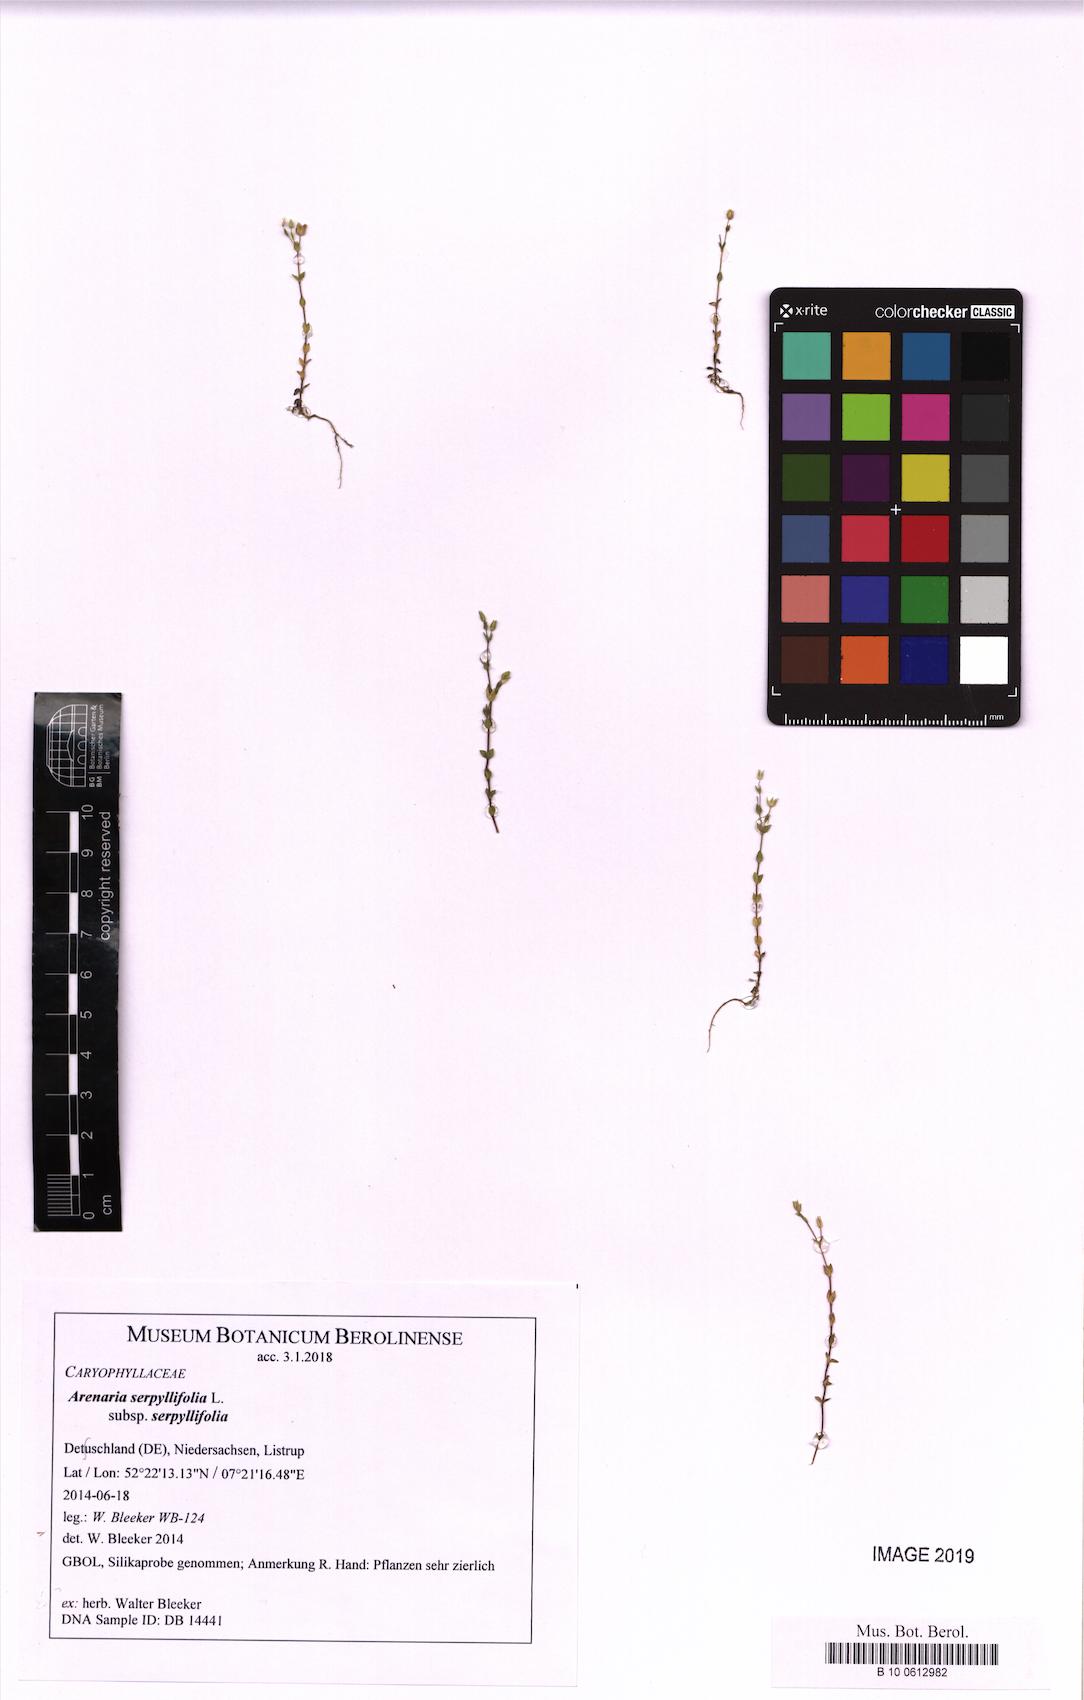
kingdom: Plantae
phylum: Tracheophyta
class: Magnoliopsida
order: Caryophyllales
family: Caryophyllaceae
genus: Arenaria
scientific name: Arenaria serpyllifolia
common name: Thyme-leaved sandwort
